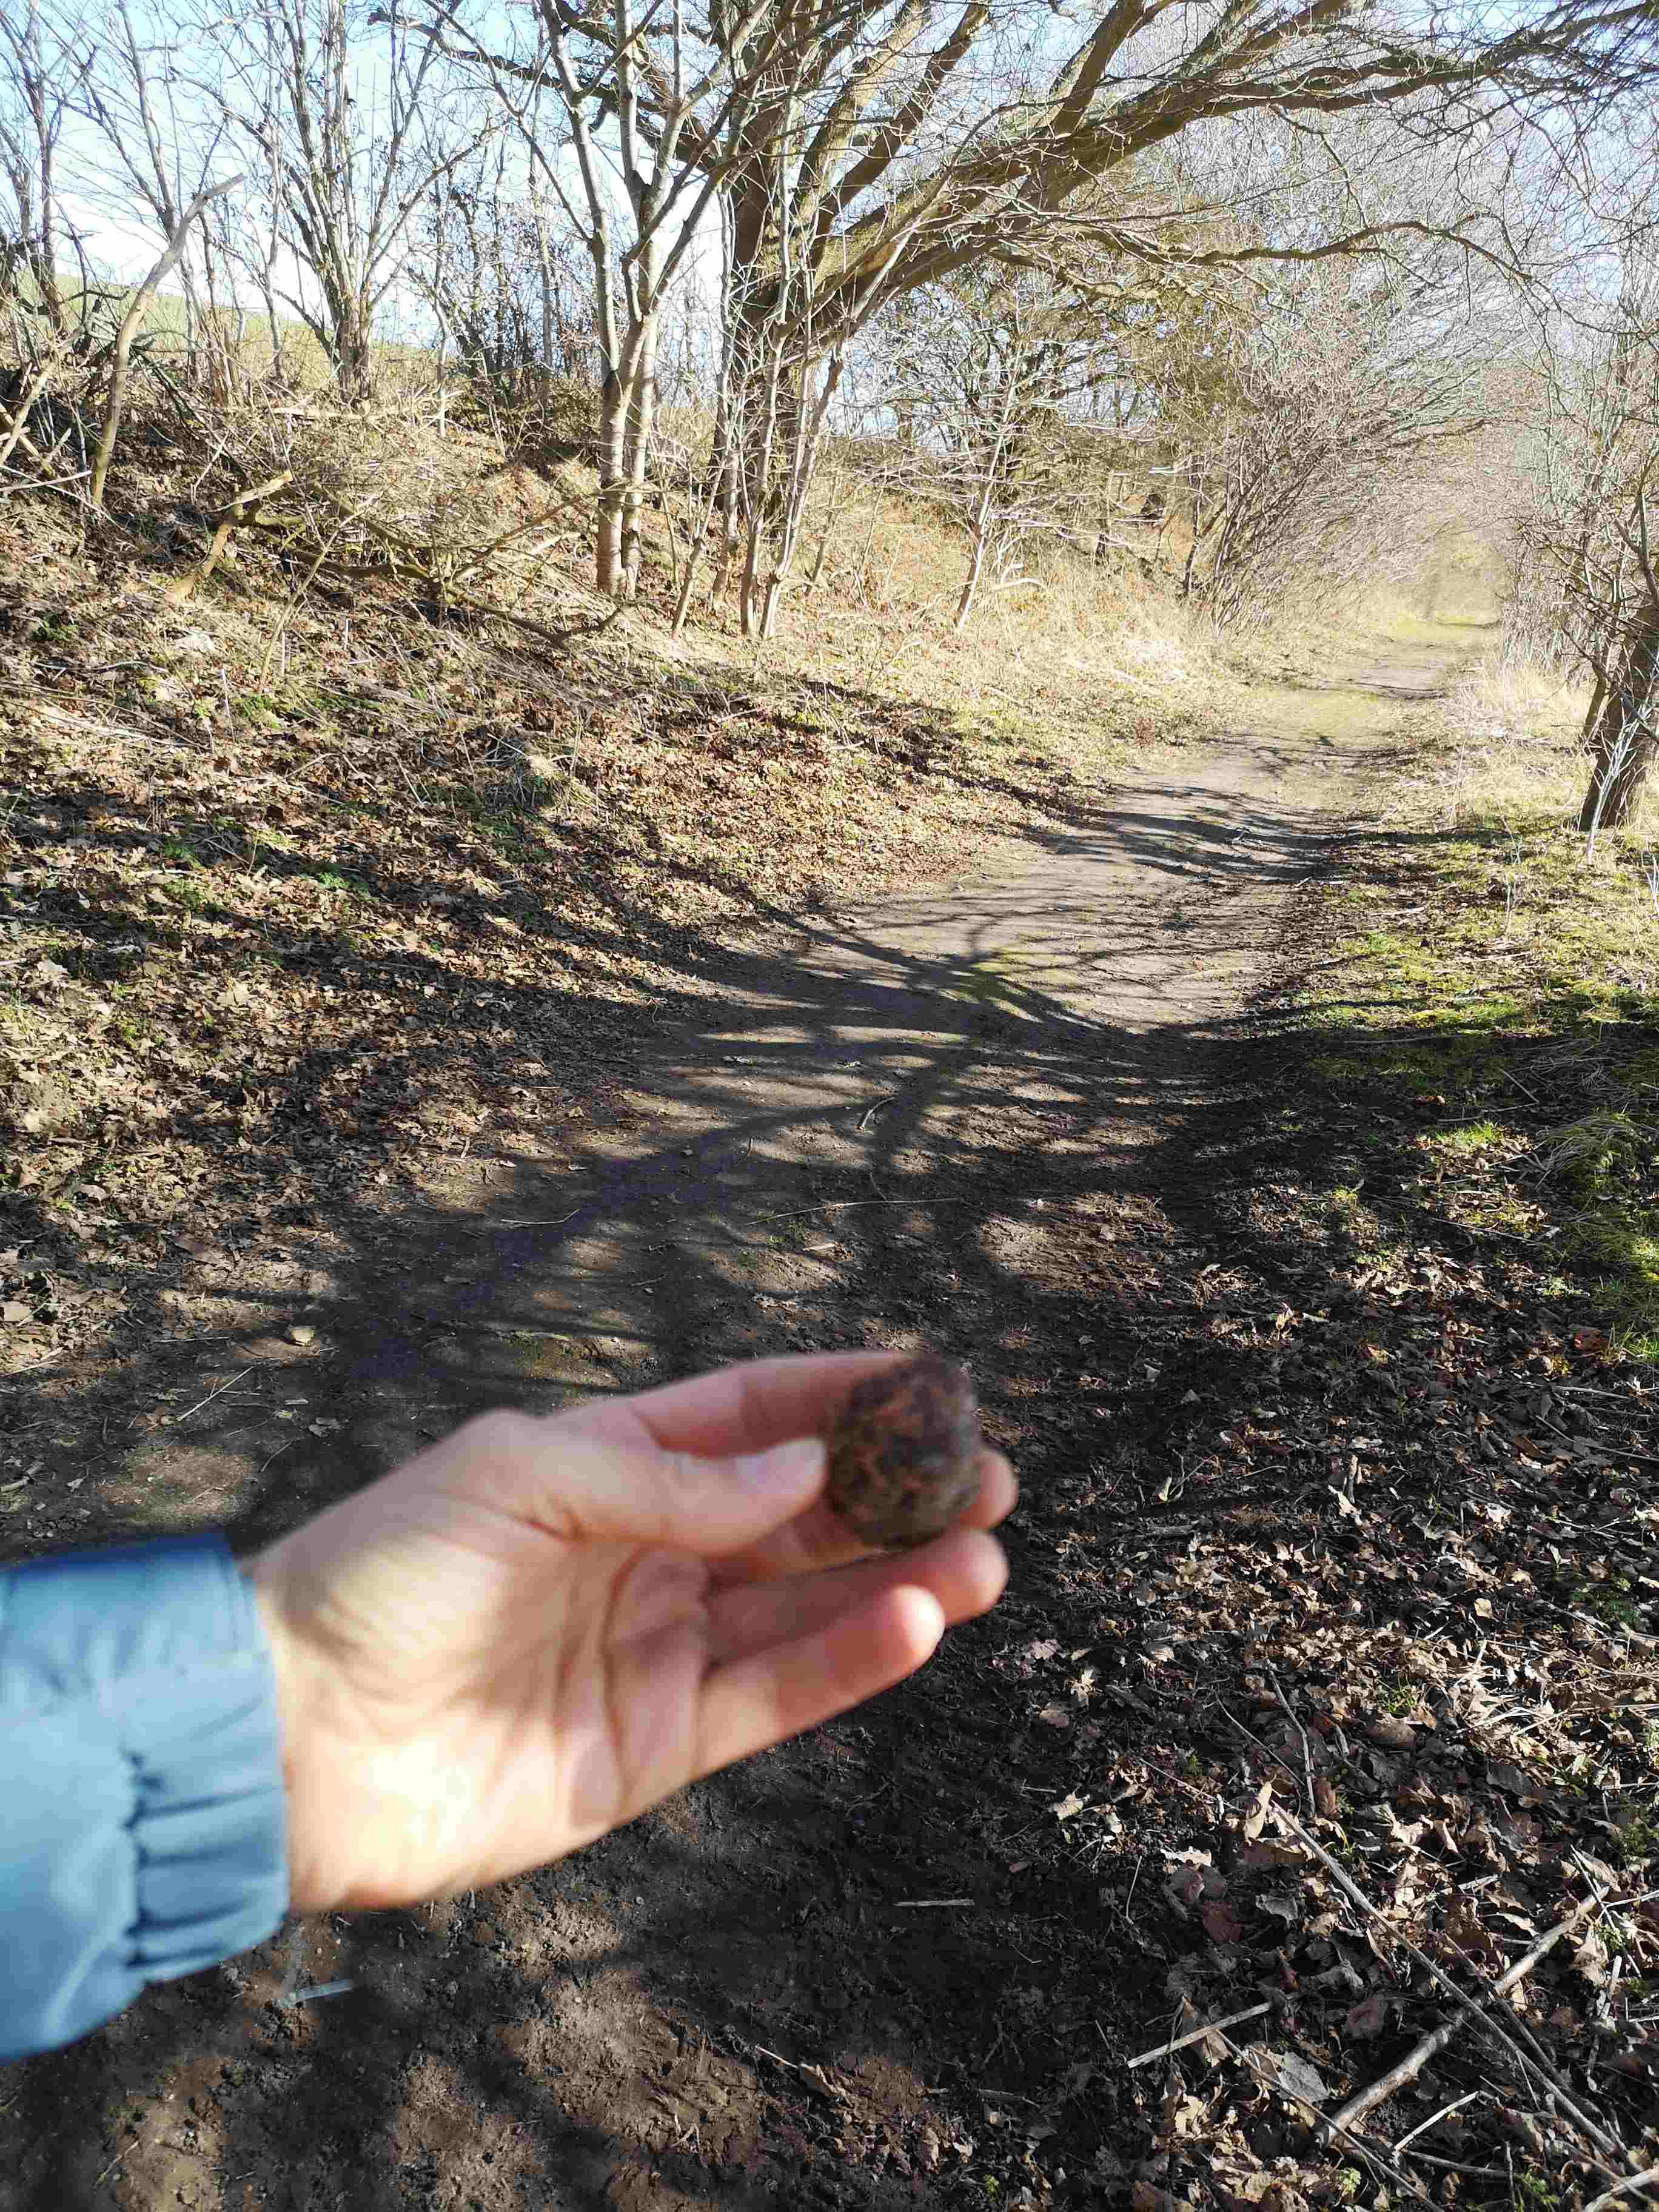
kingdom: Fungi
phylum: Basidiomycota
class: Agaricomycetes
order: Agaricales
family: Typhulaceae
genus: Sclerotium
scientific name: Sclerotium
